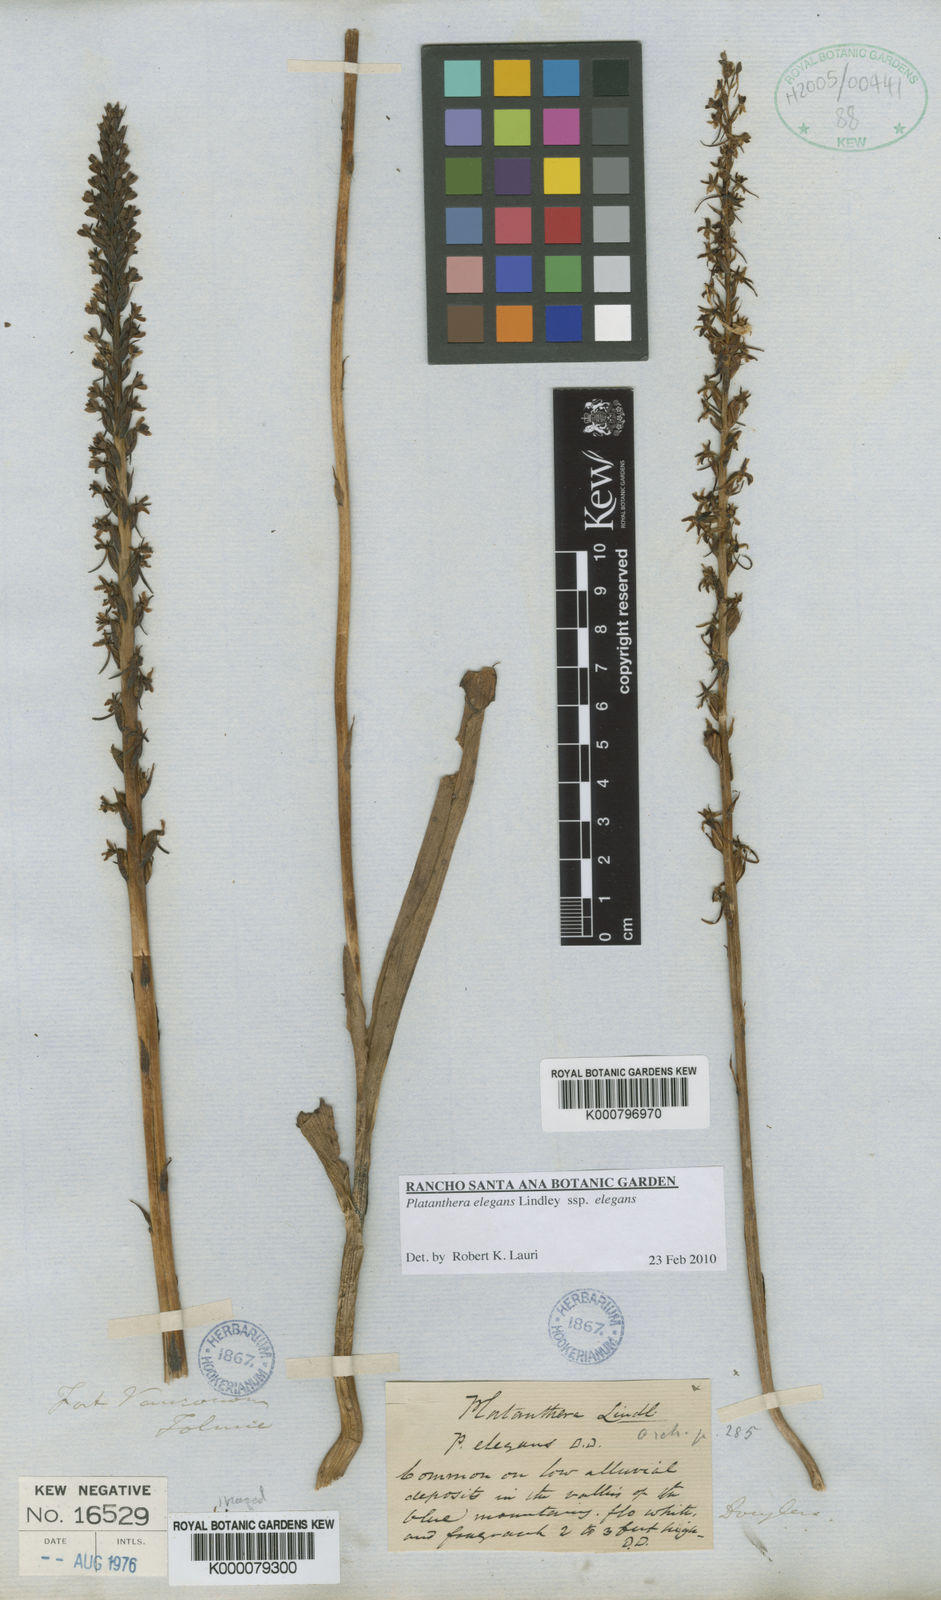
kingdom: Plantae
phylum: Tracheophyta
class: Liliopsida
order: Asparagales
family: Orchidaceae
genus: Platanthera
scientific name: Platanthera
